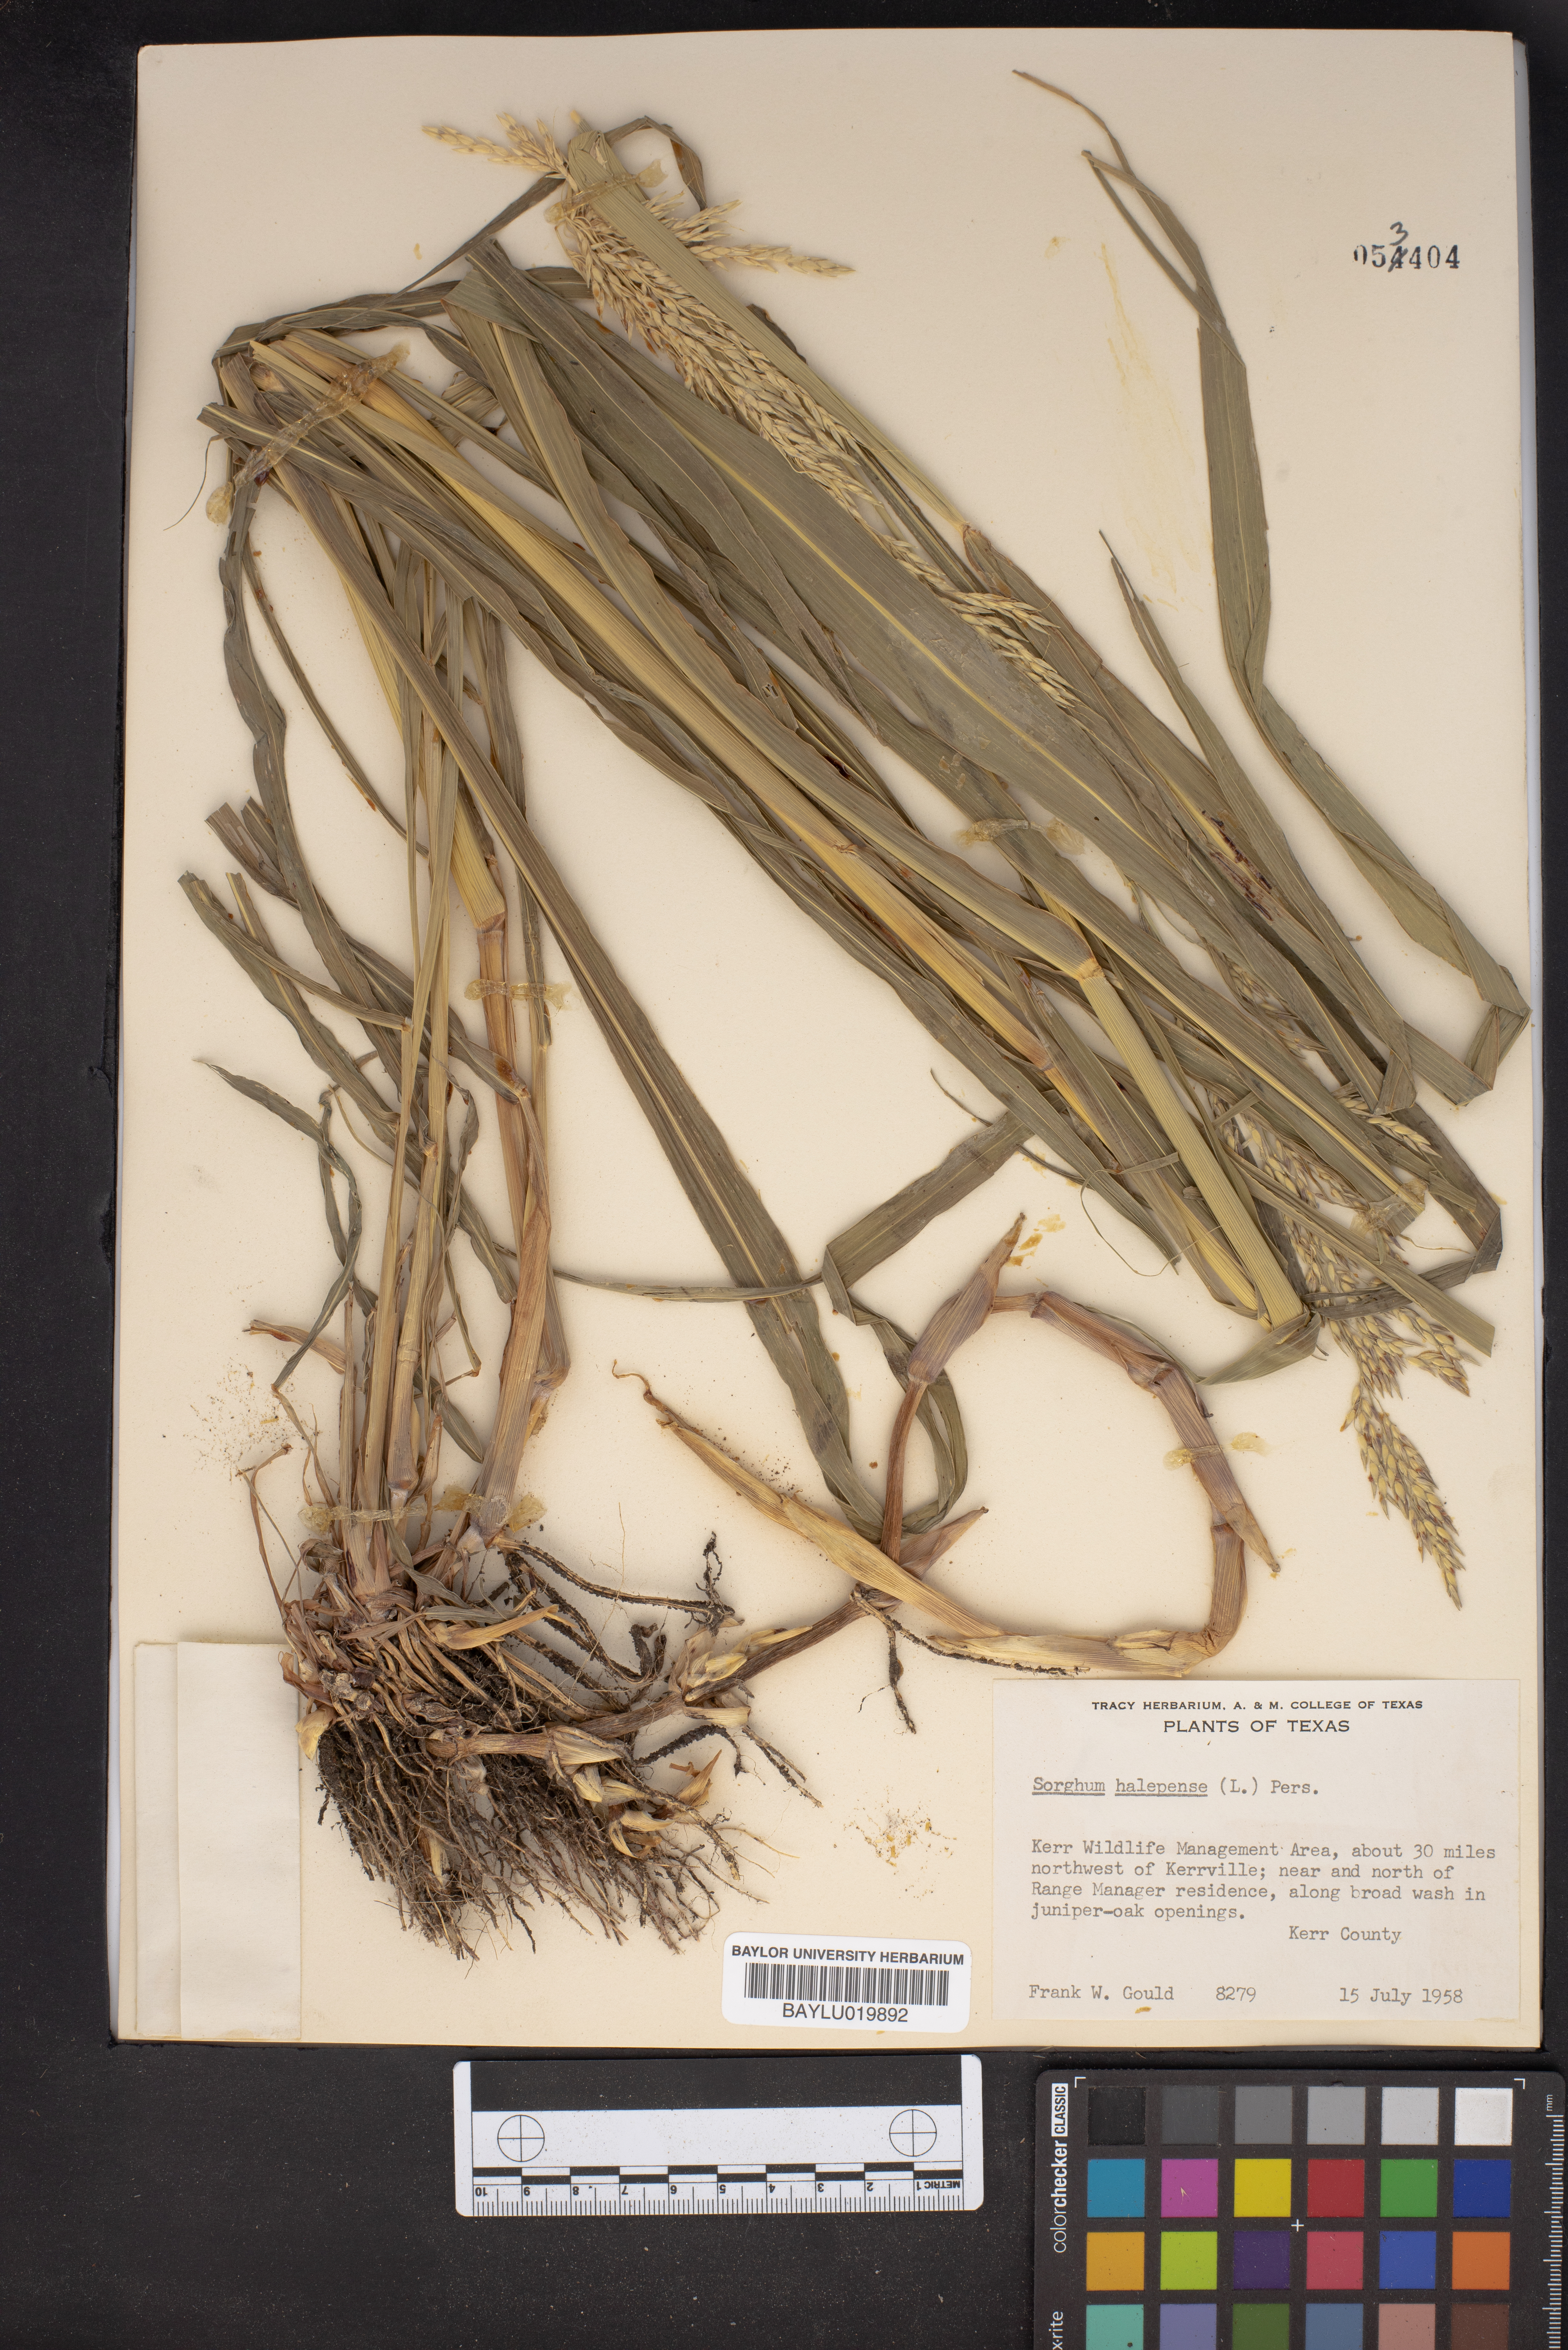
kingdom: Plantae
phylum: Tracheophyta
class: Liliopsida
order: Poales
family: Poaceae
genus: Sorghum
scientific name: Sorghum halepense
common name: Johnson-grass
